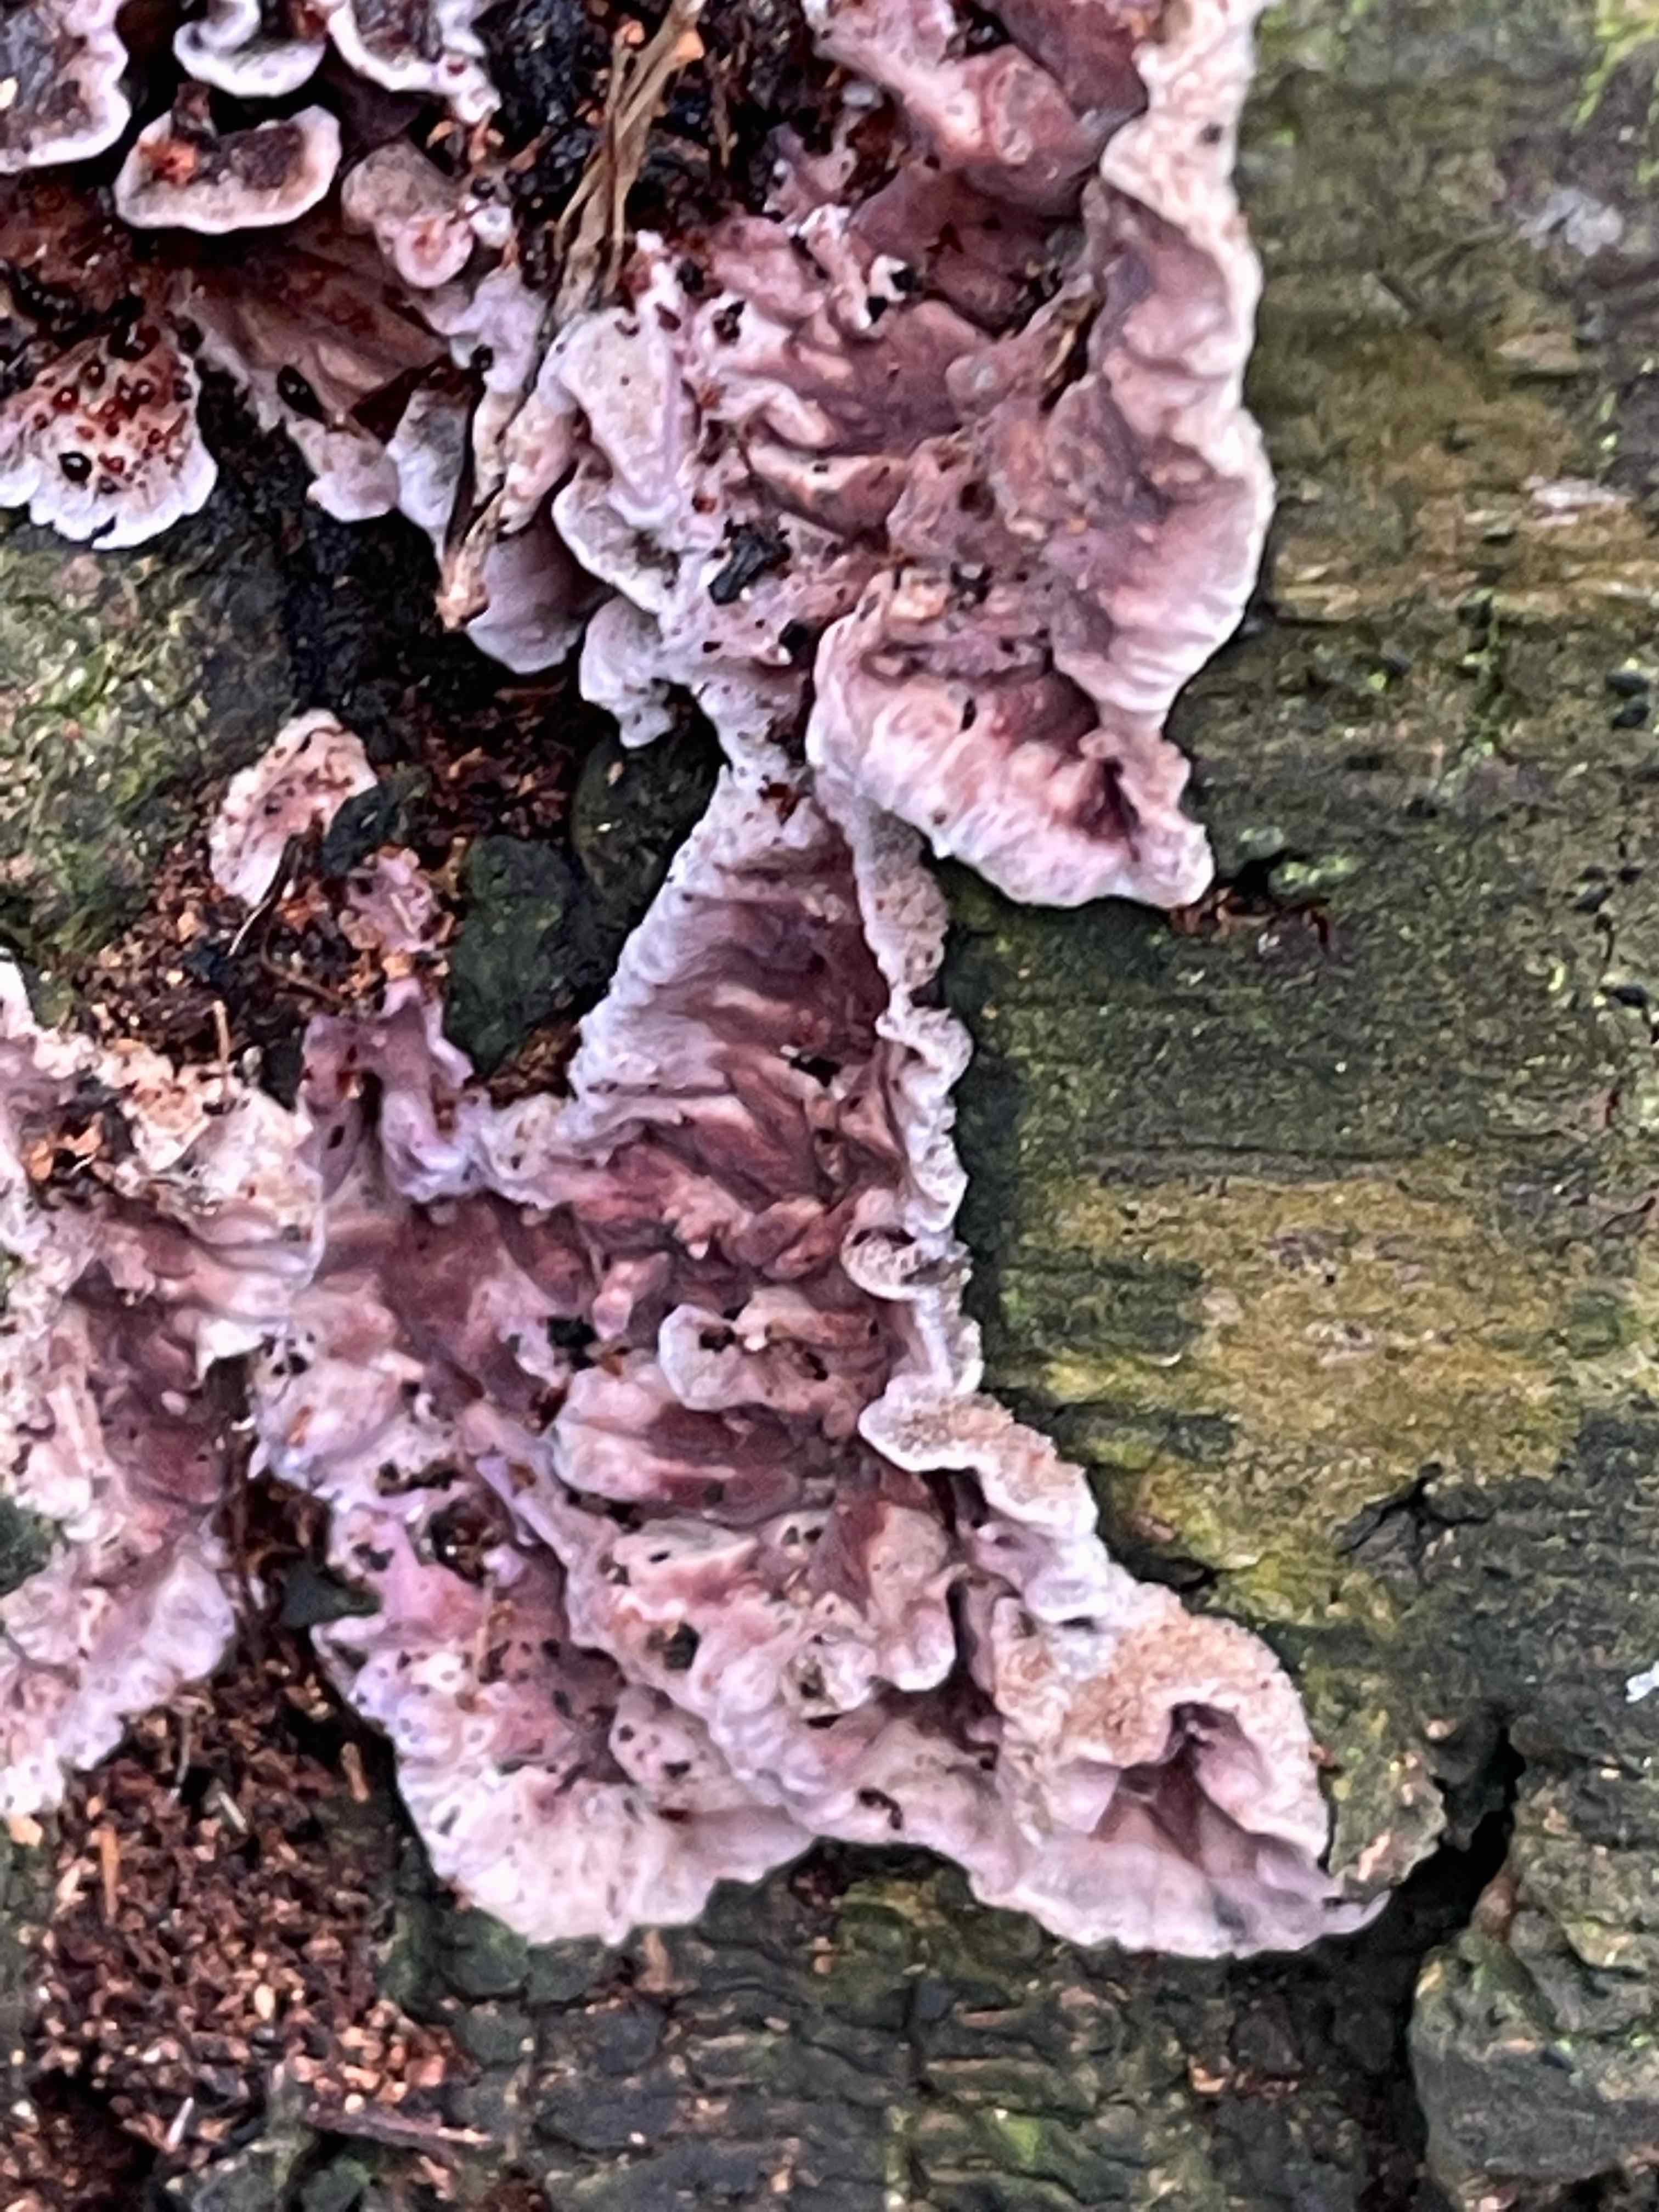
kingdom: Fungi
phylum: Basidiomycota
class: Agaricomycetes
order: Agaricales
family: Cyphellaceae
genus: Chondrostereum
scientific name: Chondrostereum purpureum
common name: purpurlædersvamp
